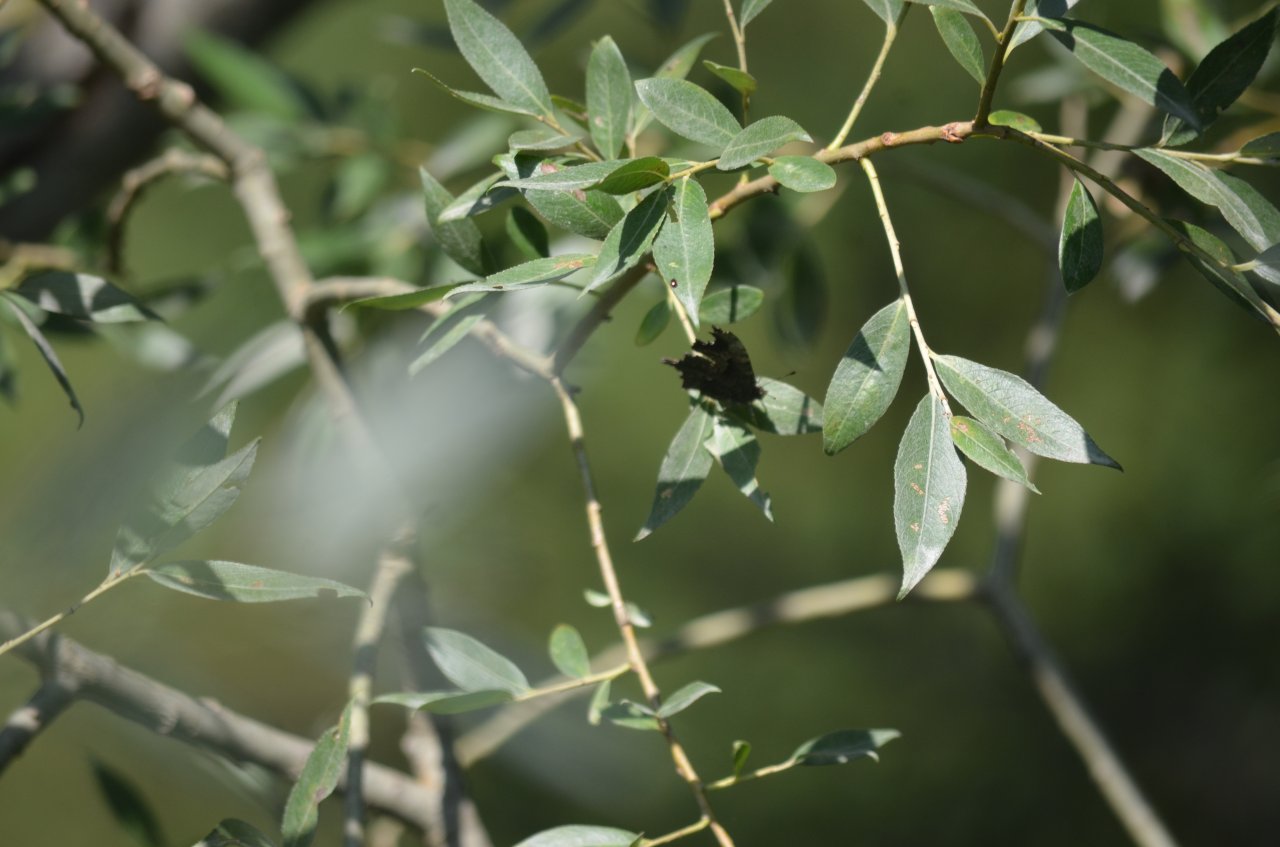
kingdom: Animalia
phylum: Arthropoda
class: Insecta
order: Lepidoptera
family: Nymphalidae
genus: Polygonia
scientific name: Polygonia comma
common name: Eastern Comma
